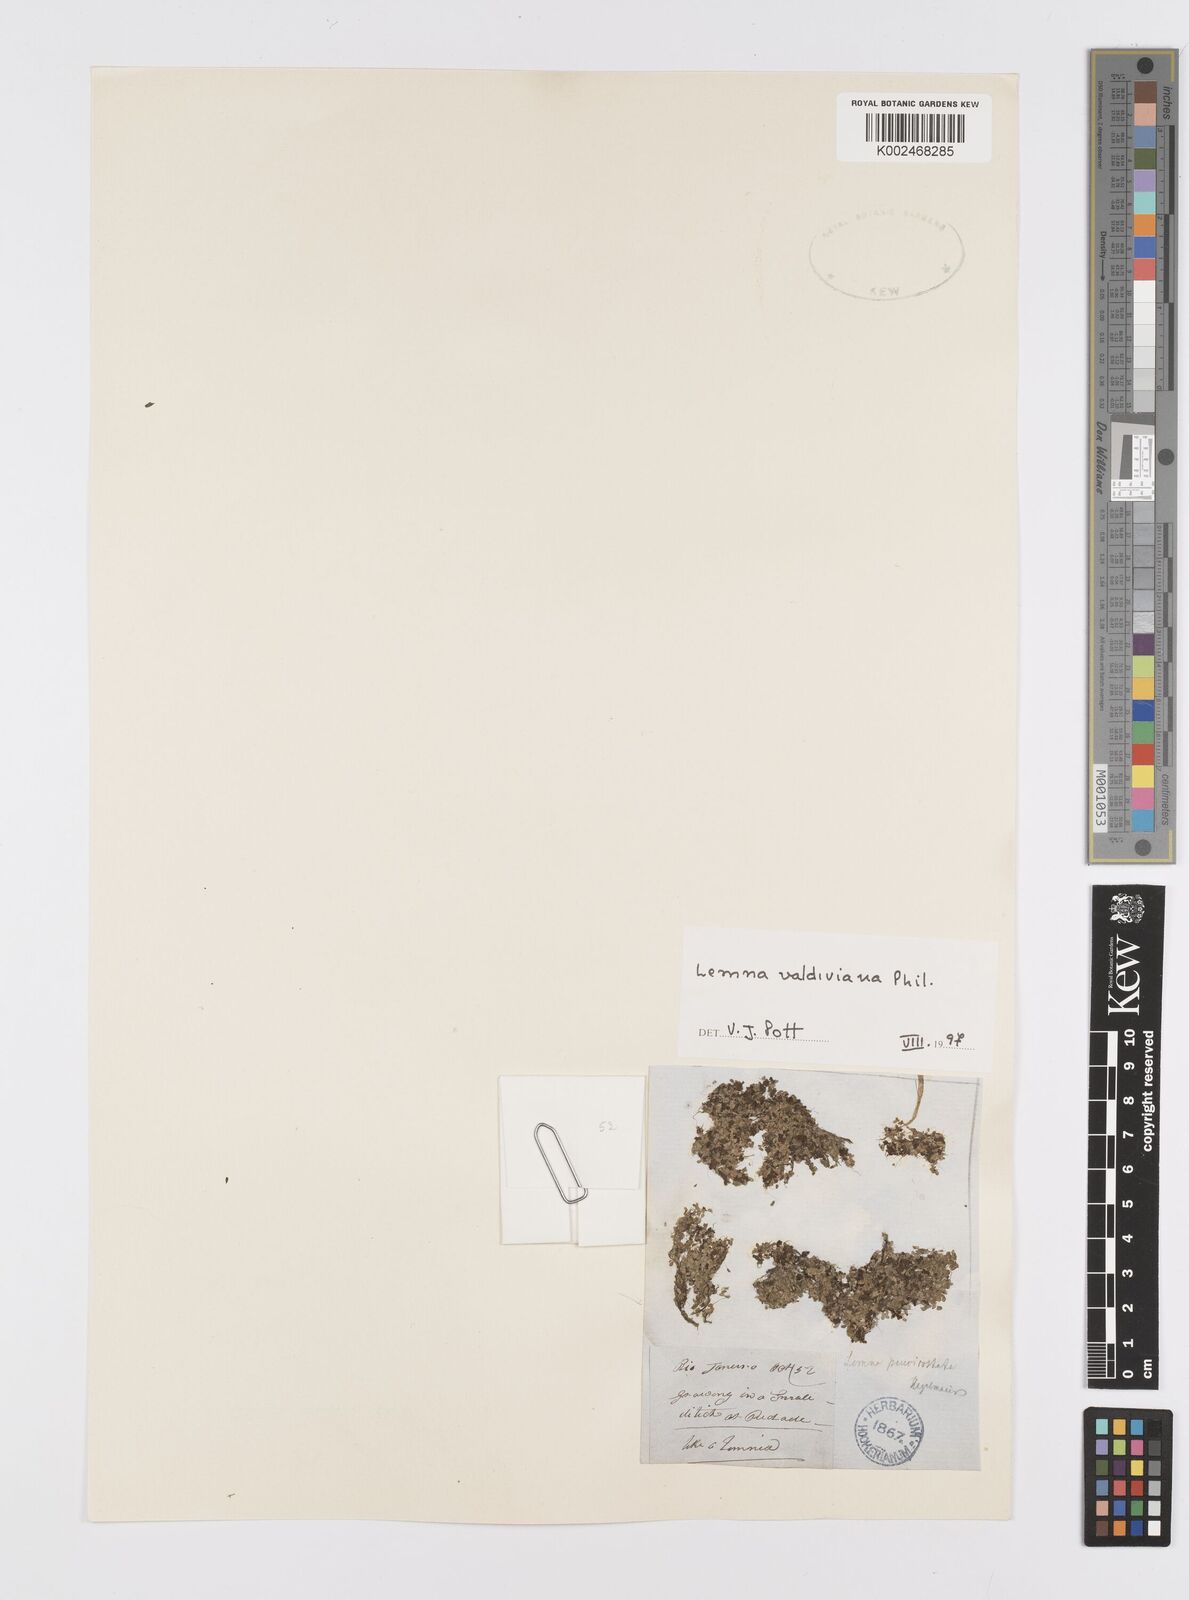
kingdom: Plantae
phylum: Tracheophyta
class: Liliopsida
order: Alismatales
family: Araceae
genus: Lemna
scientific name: Lemna valdiviana
